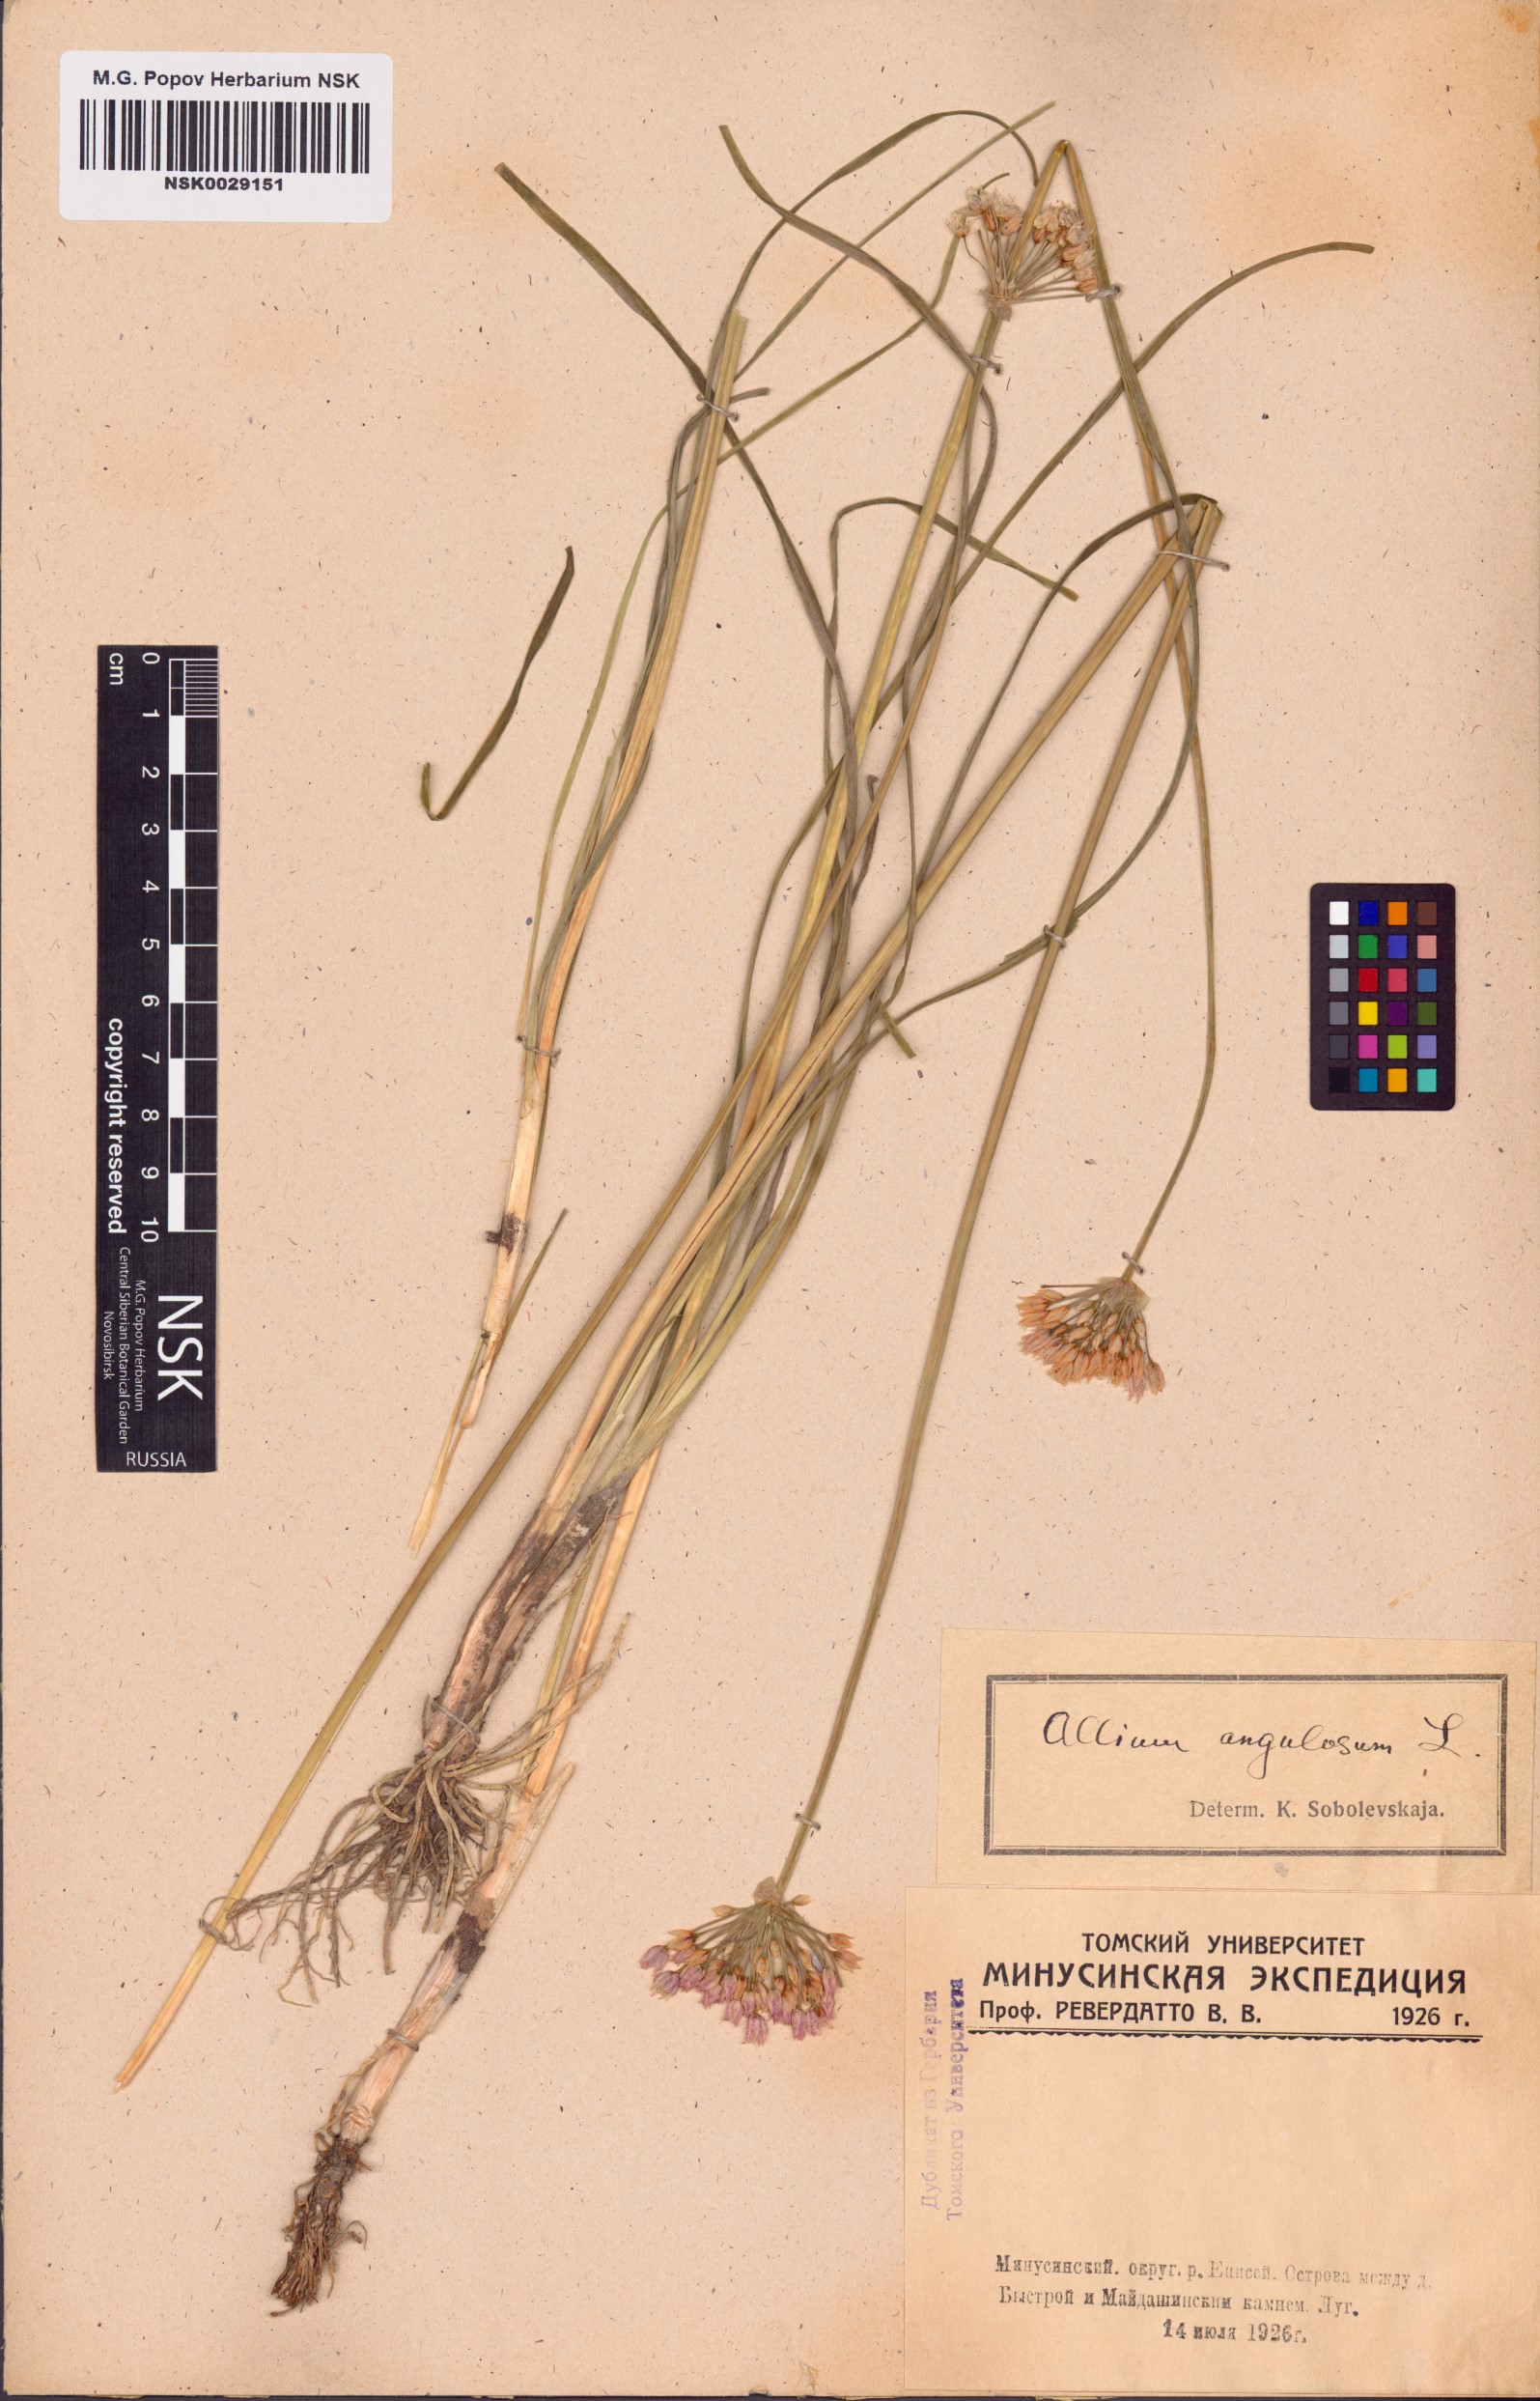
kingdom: Plantae
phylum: Tracheophyta
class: Liliopsida
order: Asparagales
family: Amaryllidaceae
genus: Allium
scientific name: Allium angulosum
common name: Mouse garlic
